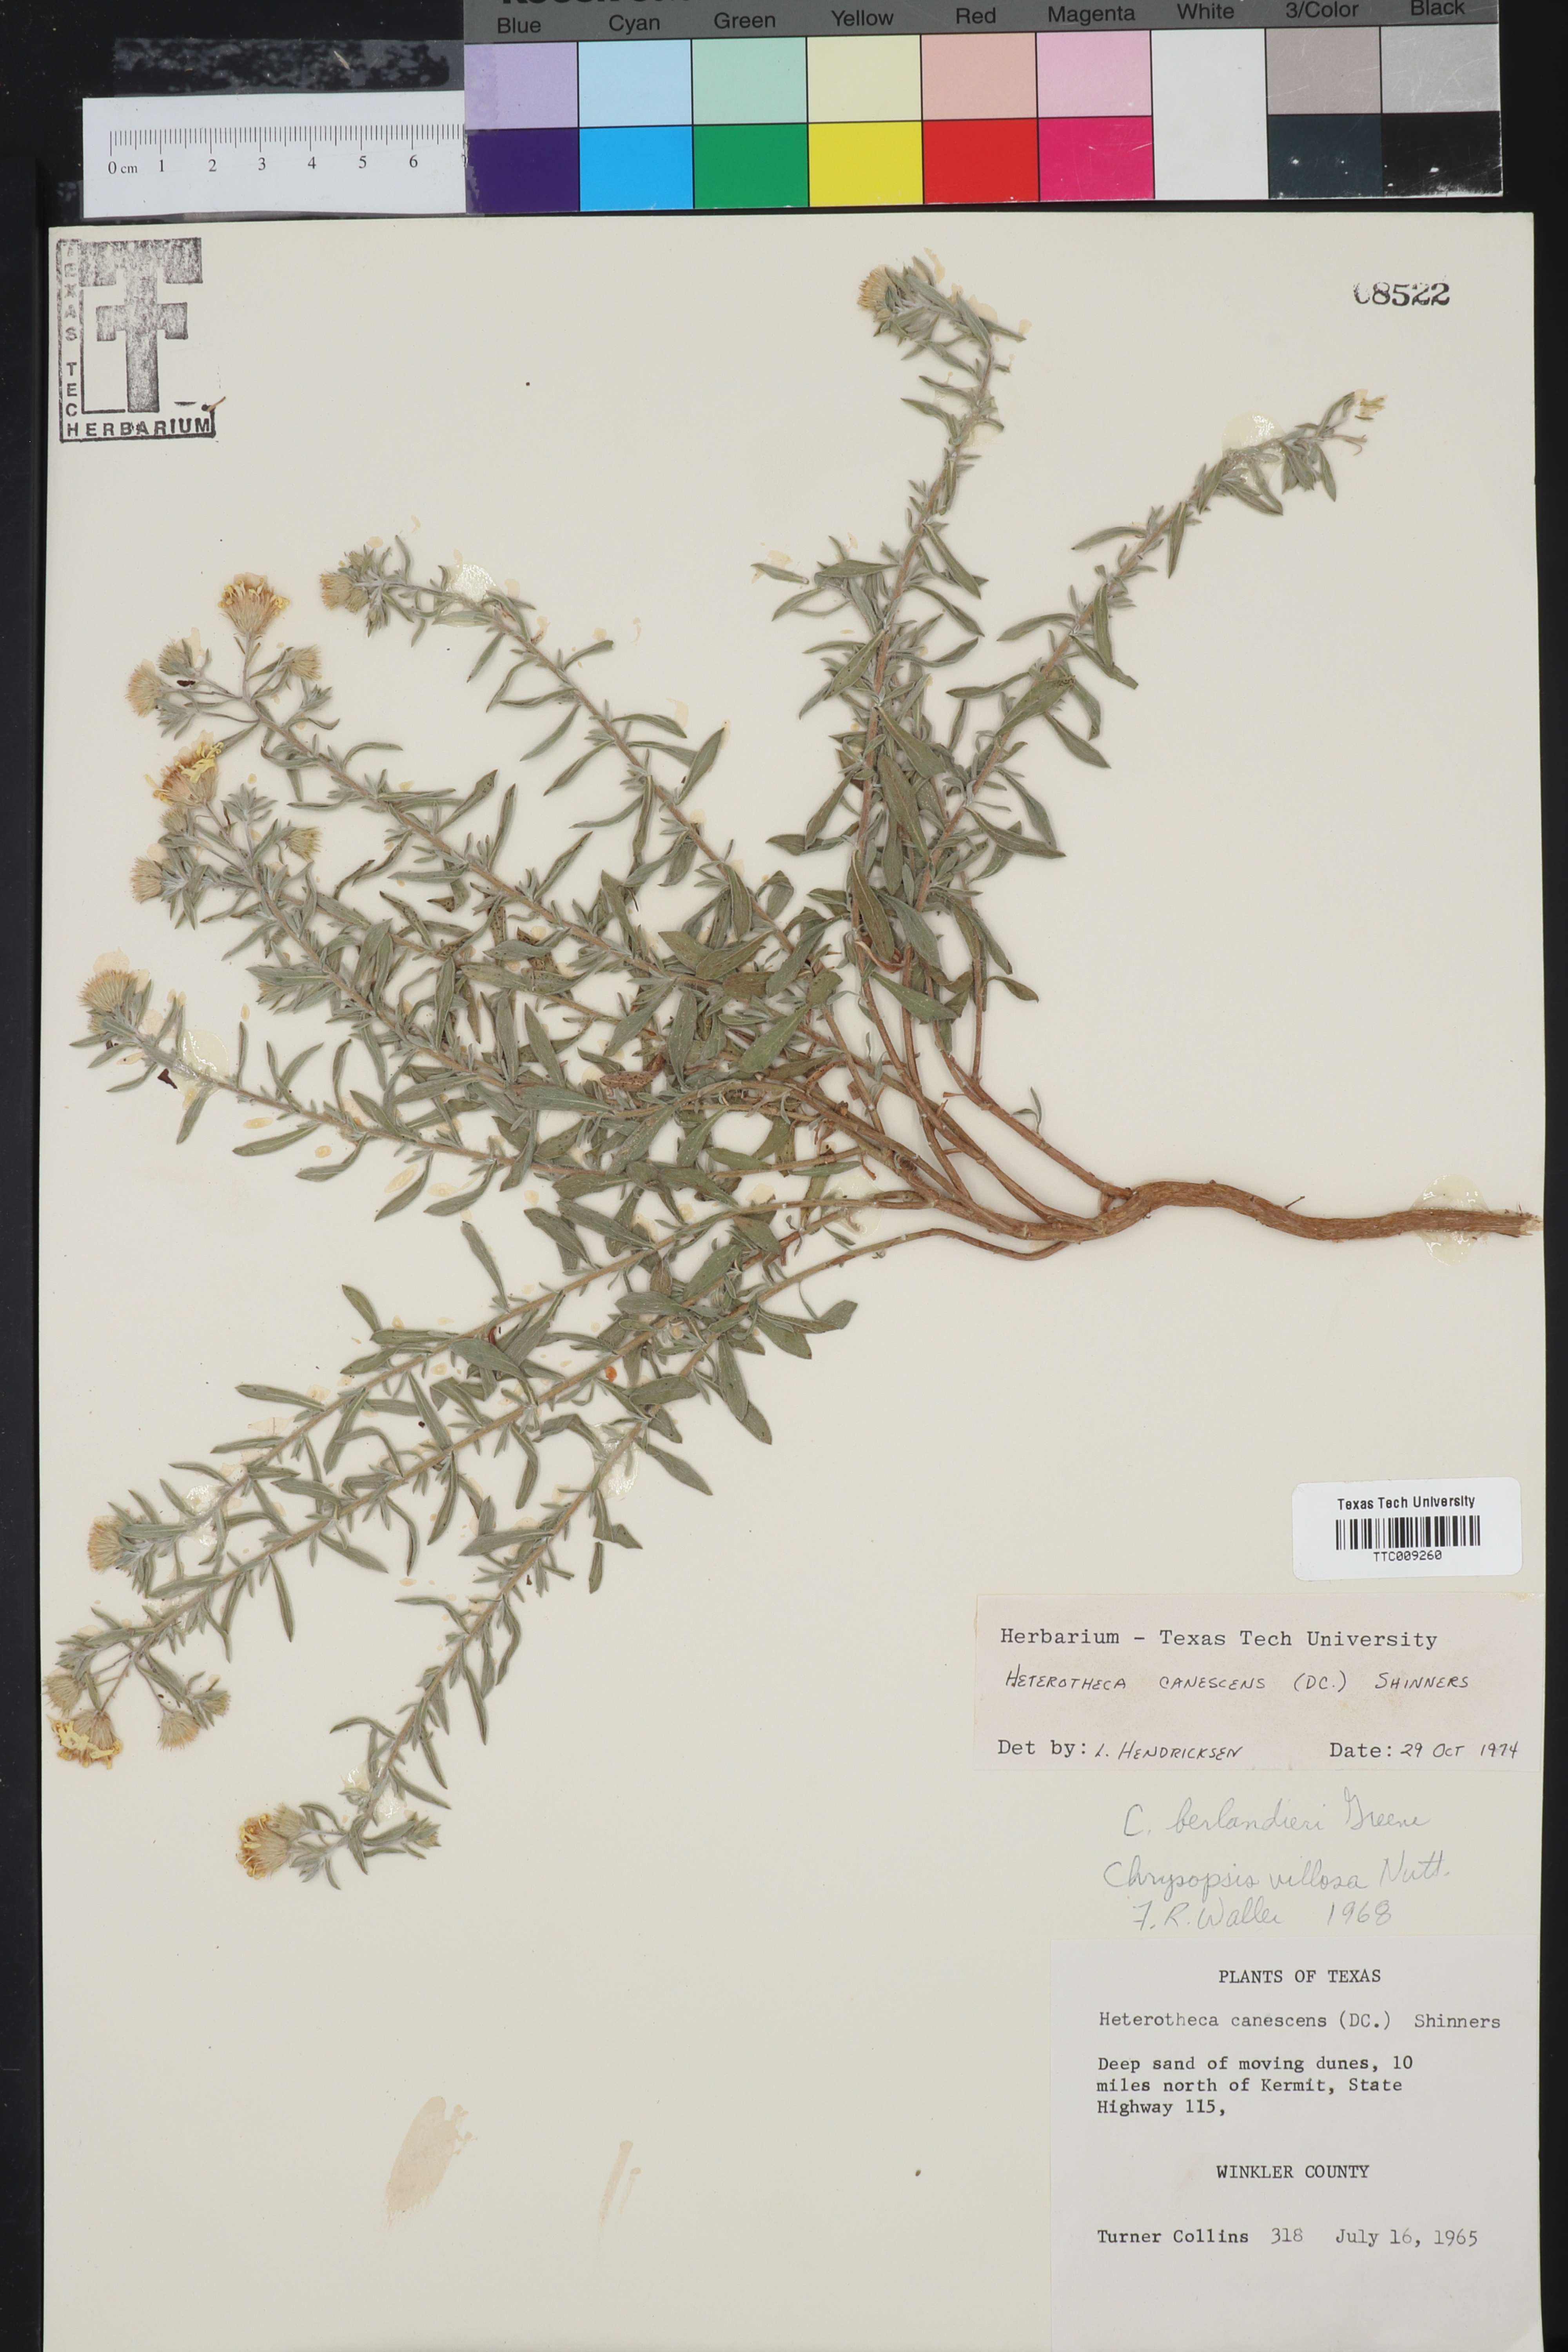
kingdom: Plantae
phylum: Tracheophyta
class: Magnoliopsida
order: Asterales
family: Asteraceae
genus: Heterotheca
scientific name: Heterotheca canescens
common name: Hoary golden-aster
